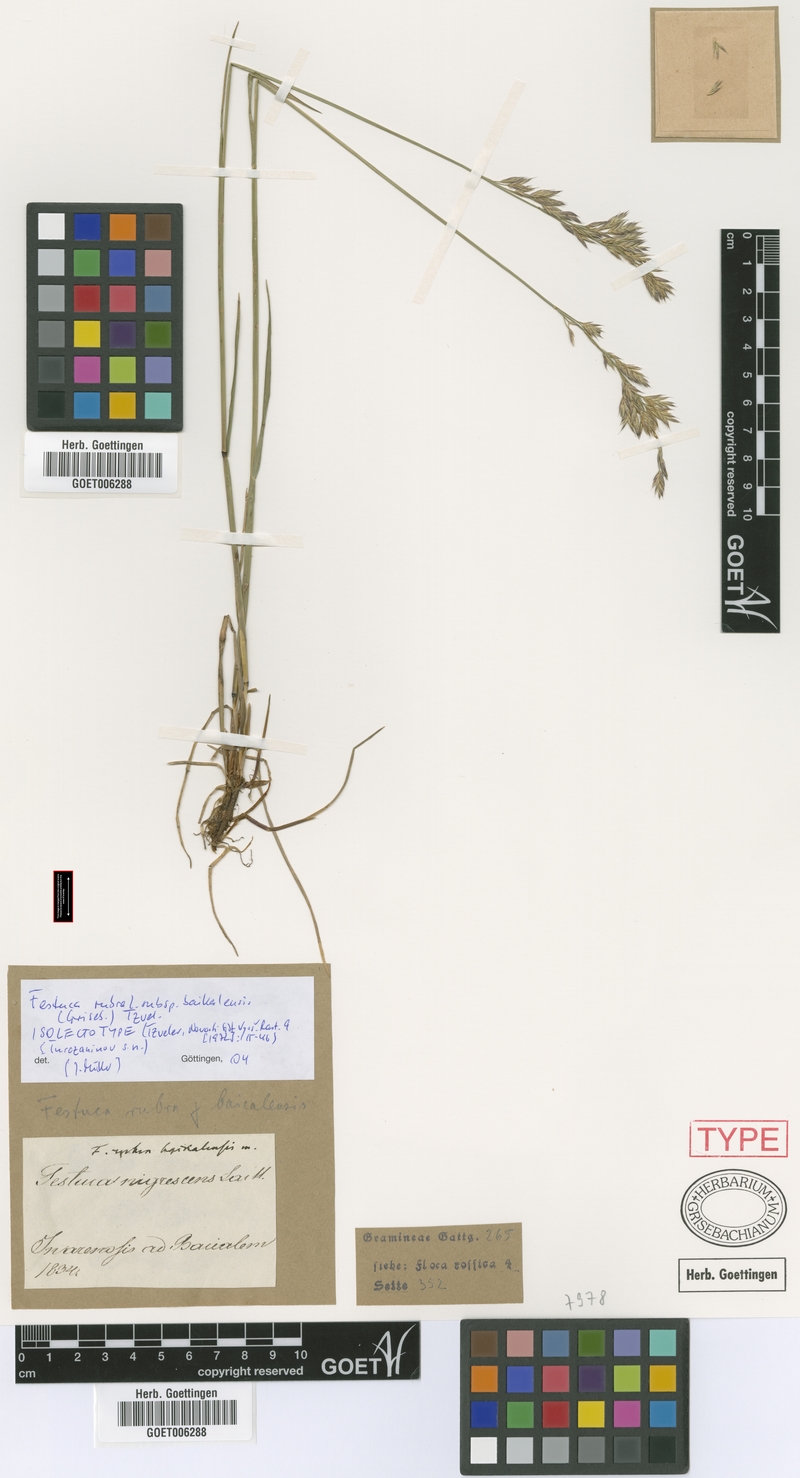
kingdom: Plantae
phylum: Tracheophyta
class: Liliopsida
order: Poales
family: Poaceae
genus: Festuca
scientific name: Festuca rubra
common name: Red fescue
